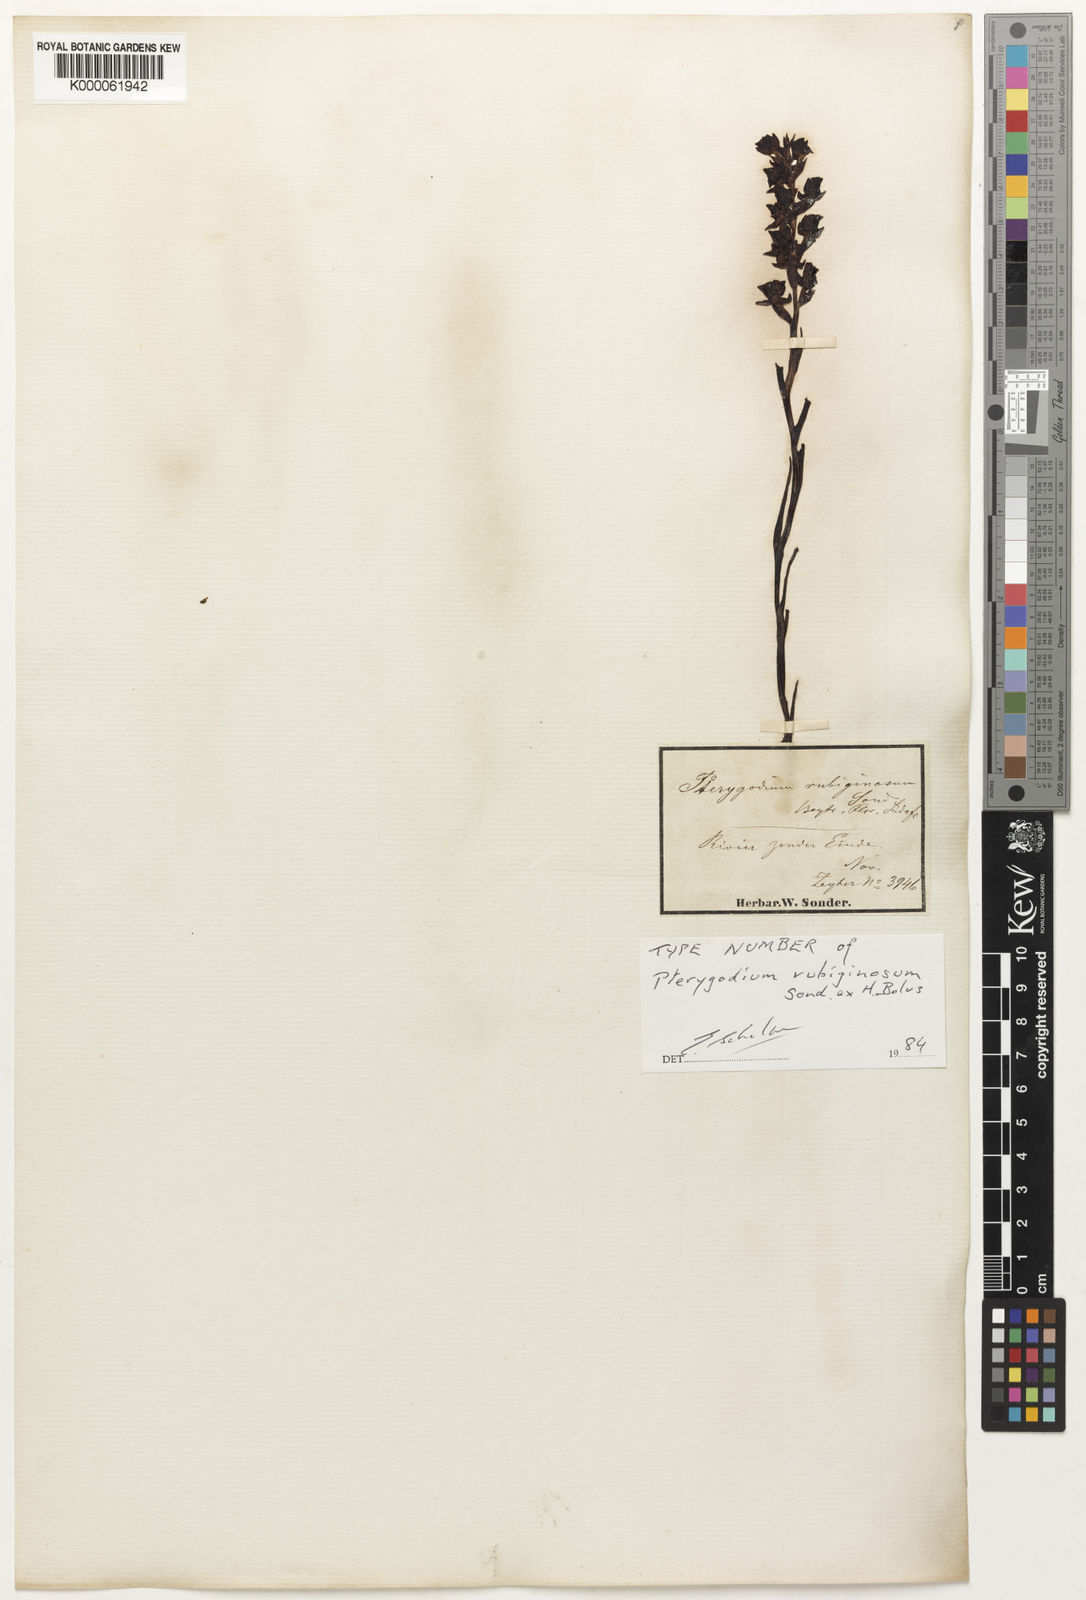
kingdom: Plantae
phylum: Tracheophyta
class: Liliopsida
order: Asparagales
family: Orchidaceae
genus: Corycium
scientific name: Corycium
